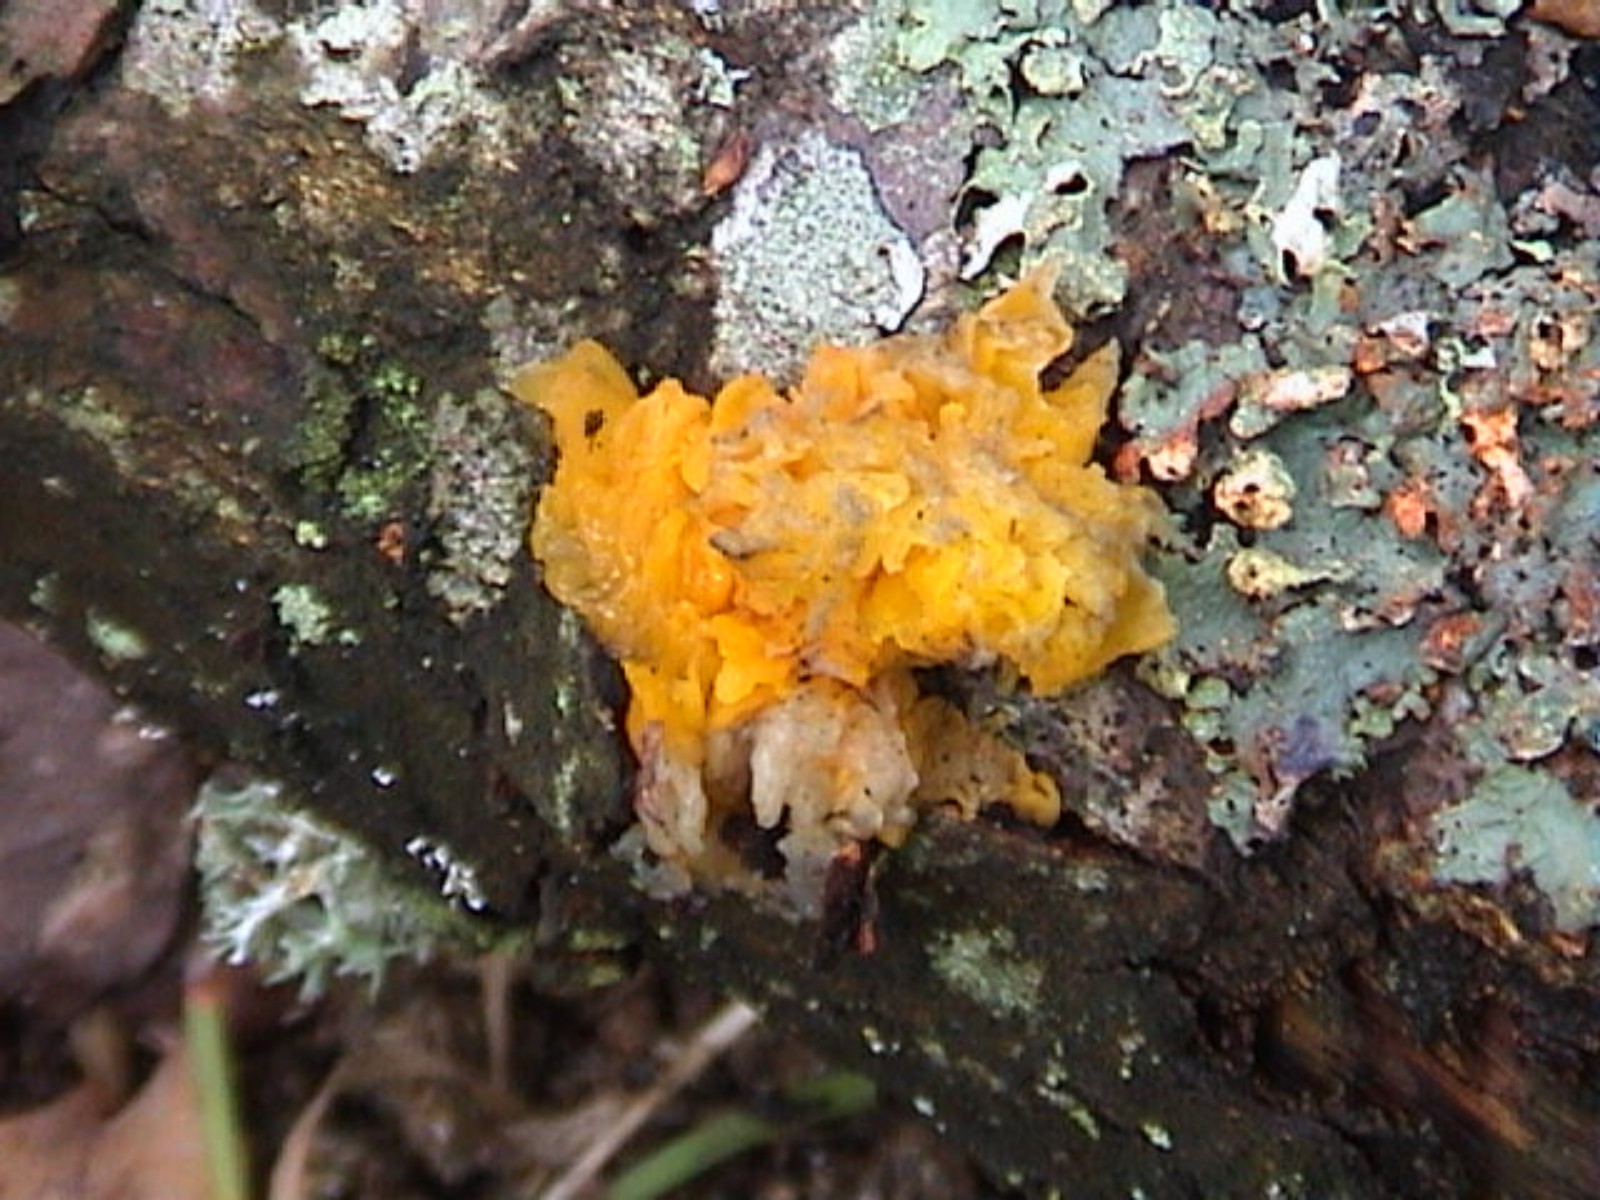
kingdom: Fungi
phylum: Basidiomycota
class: Tremellomycetes
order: Tremellales
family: Tremellaceae
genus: Tremella
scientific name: Tremella mesenterica
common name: gul bævresvamp
